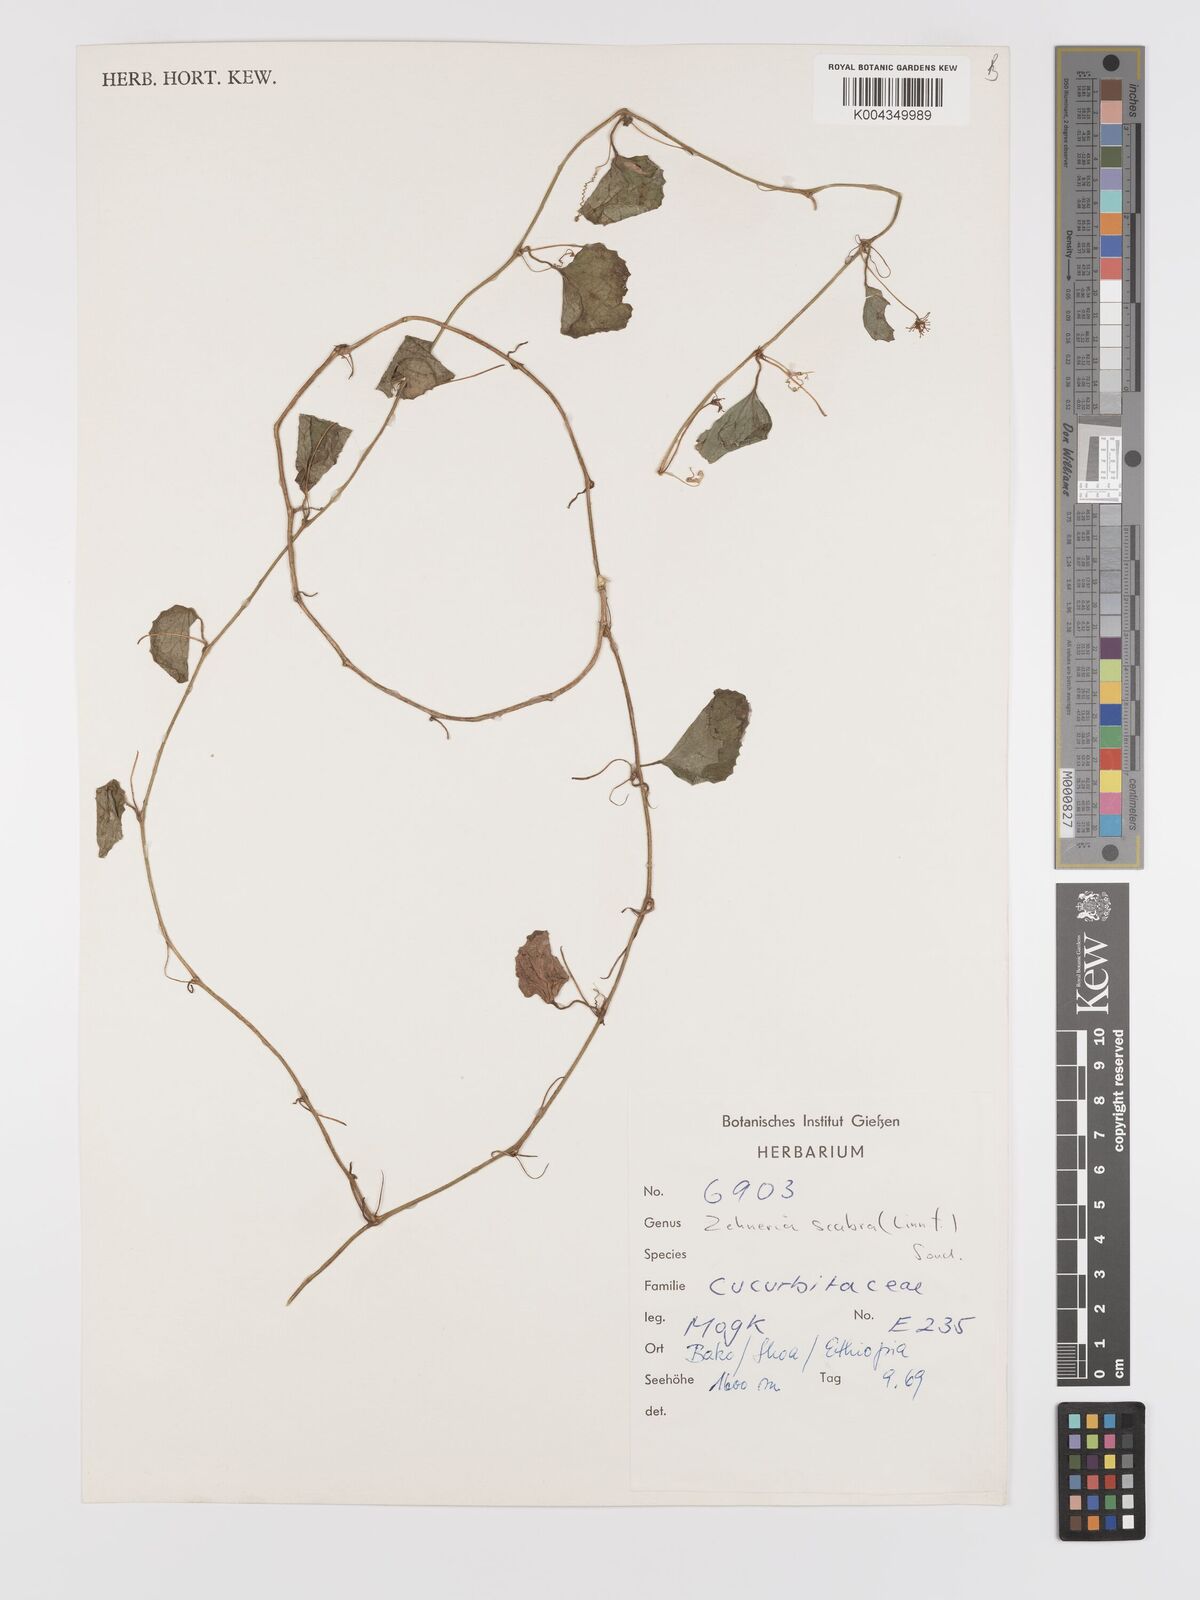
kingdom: Plantae
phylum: Tracheophyta
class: Magnoliopsida
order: Cucurbitales
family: Cucurbitaceae
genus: Zehneria
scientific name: Zehneria scabra
